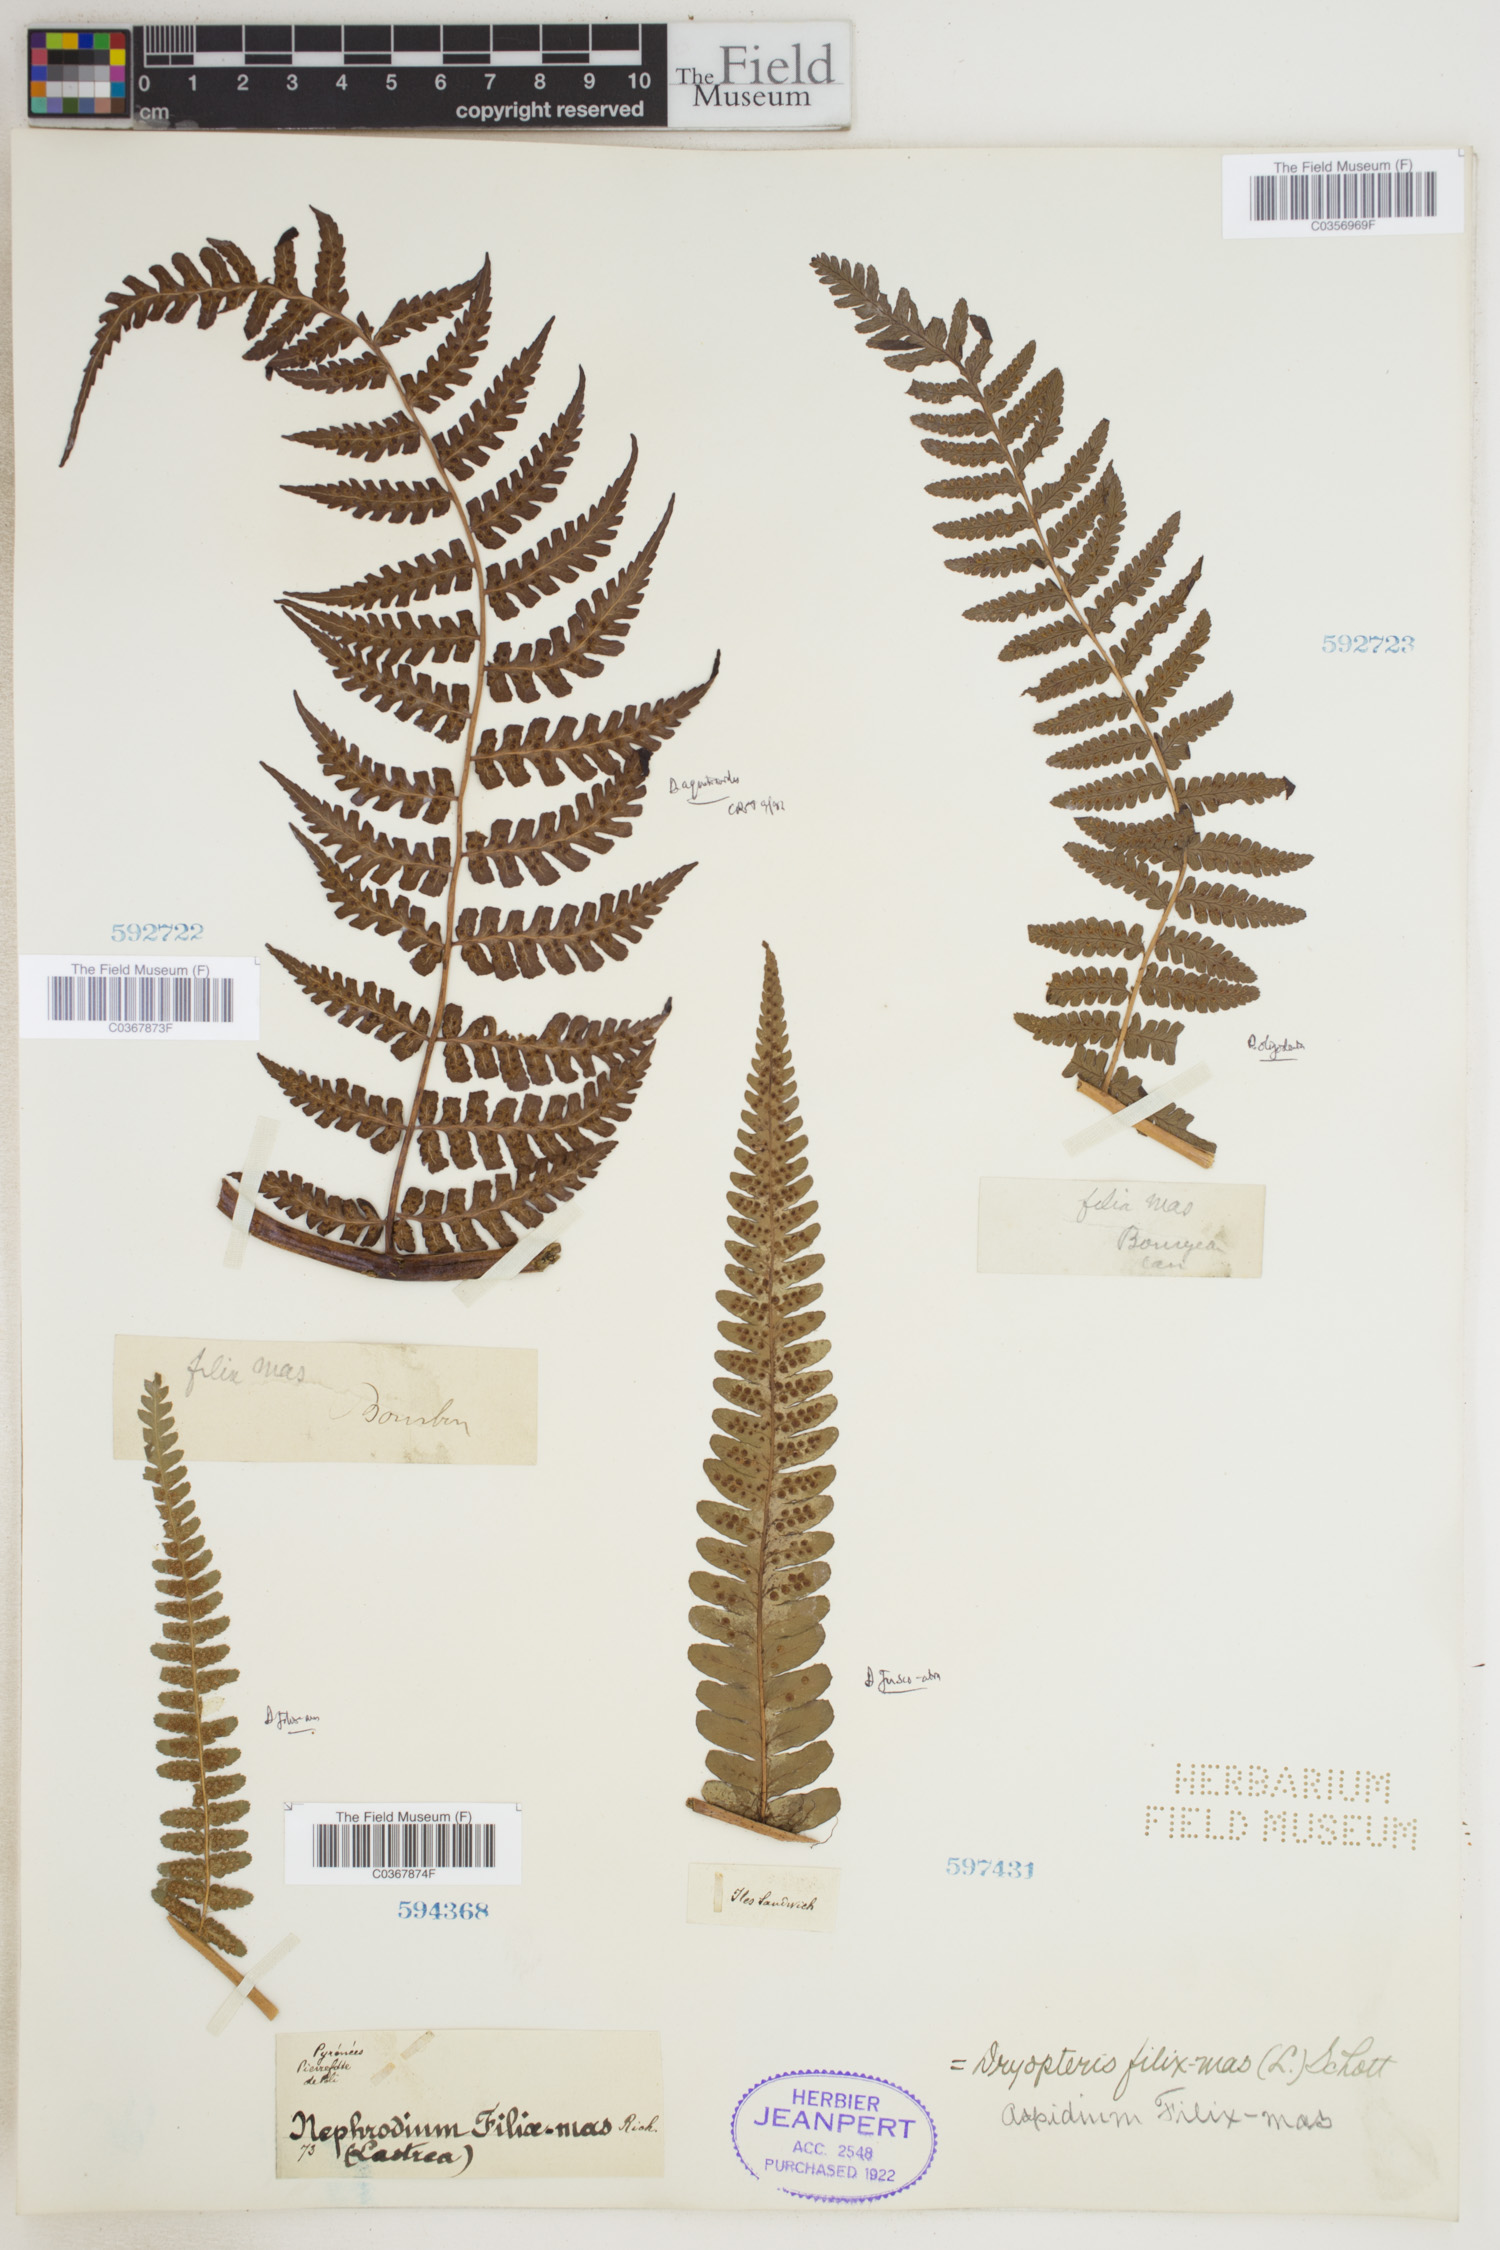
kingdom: Plantae
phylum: Tracheophyta
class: Polypodiopsida
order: Polypodiales
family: Dryopteridaceae
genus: Dryopteris
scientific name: Dryopteris filix-mas
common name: Male fern
